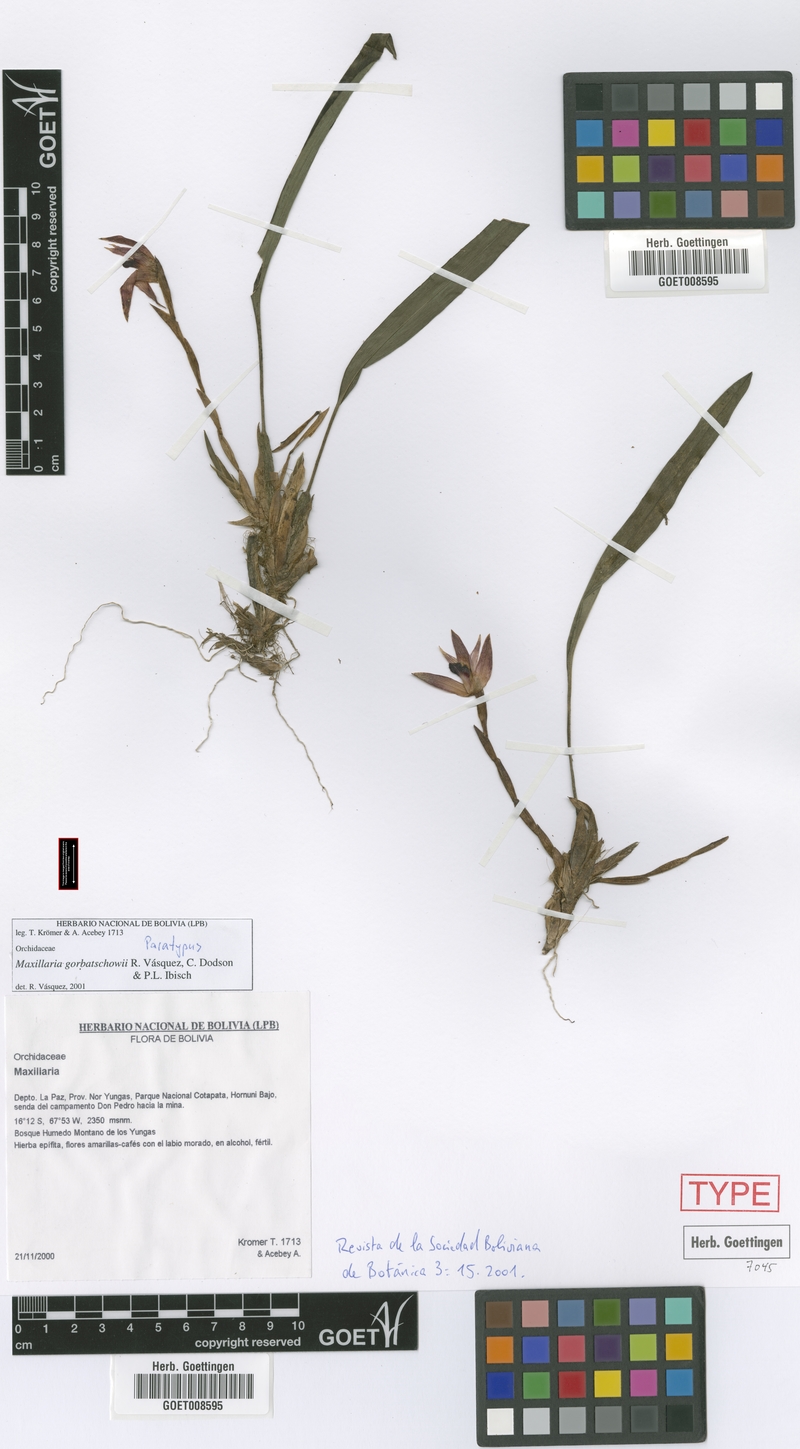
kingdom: Plantae
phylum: Tracheophyta
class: Liliopsida
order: Asparagales
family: Orchidaceae
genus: Maxillaria
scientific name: Maxillaria gorbatschowii
